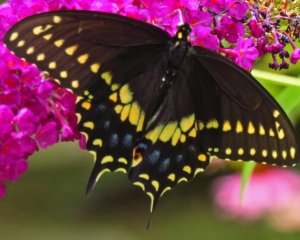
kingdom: Animalia
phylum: Arthropoda
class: Insecta
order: Lepidoptera
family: Papilionidae
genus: Papilio
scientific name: Papilio polyxenes
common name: Black Swallowtail
